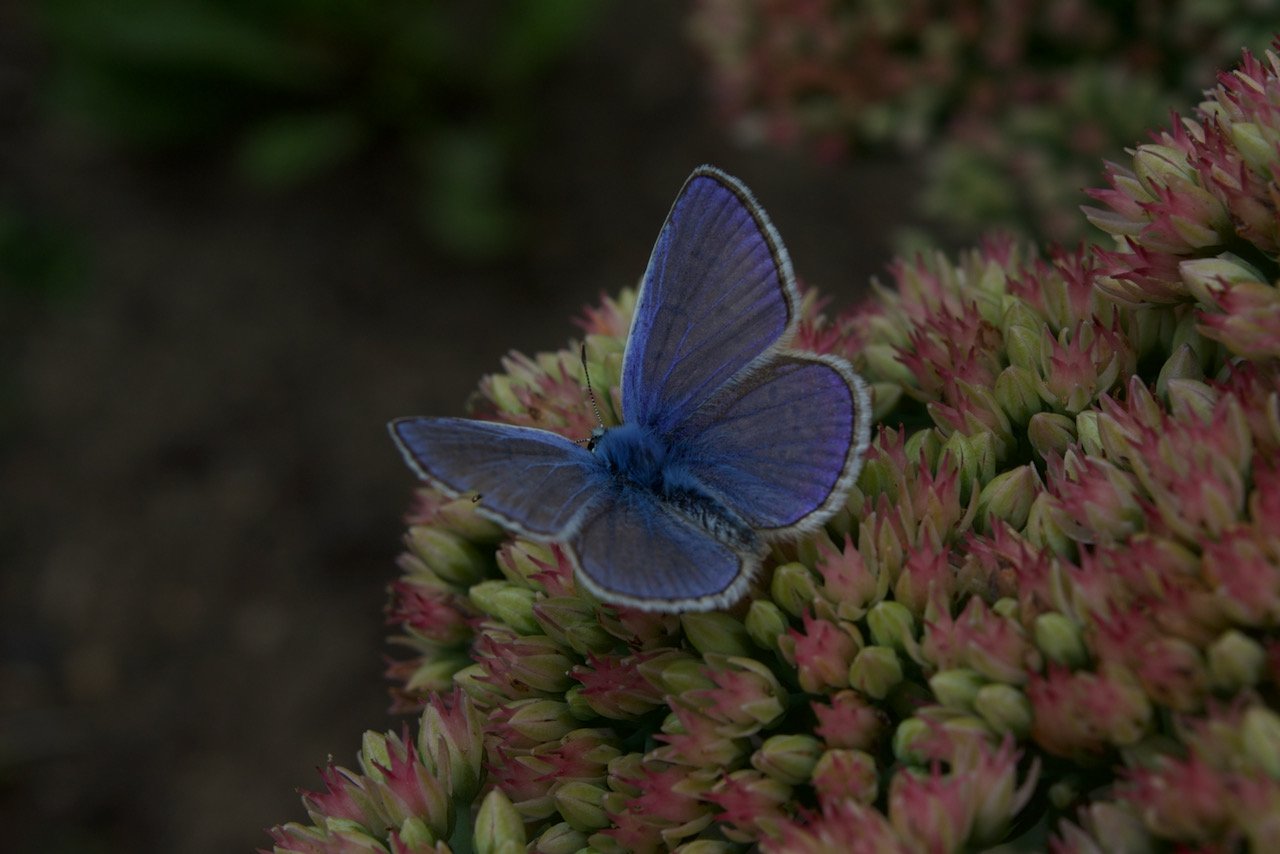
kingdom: Animalia
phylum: Arthropoda
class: Insecta
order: Lepidoptera
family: Lycaenidae
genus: Polyommatus
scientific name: Polyommatus icarus
